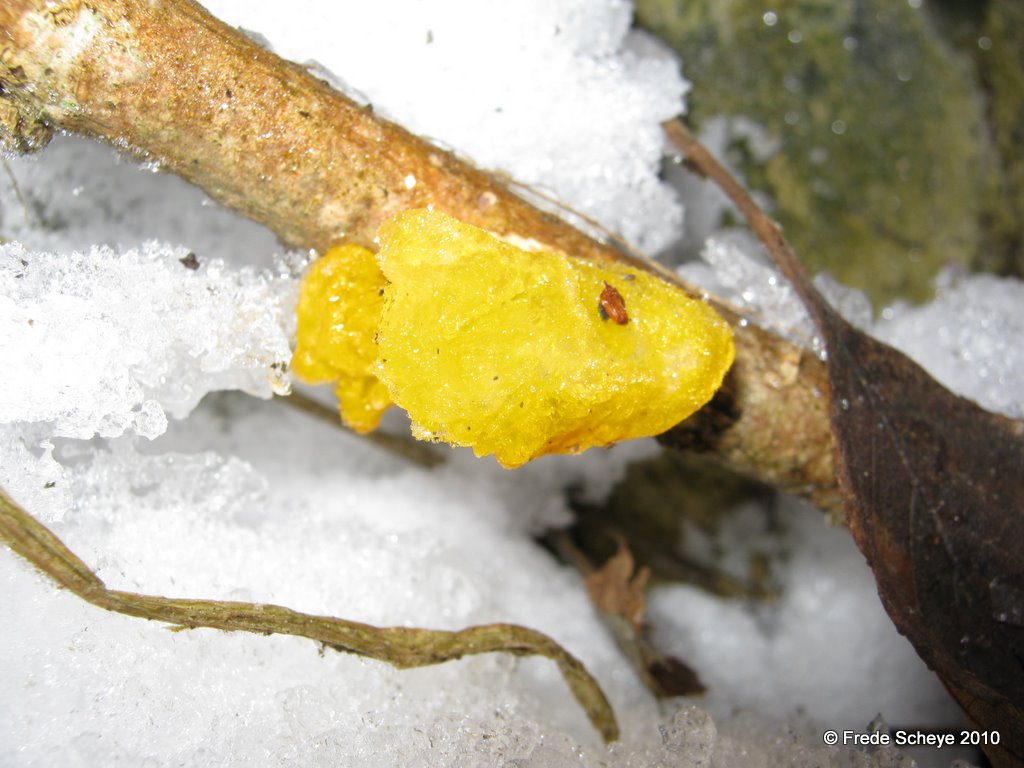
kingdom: Fungi
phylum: Basidiomycota
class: Tremellomycetes
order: Tremellales
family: Tremellaceae
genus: Tremella
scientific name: Tremella mesenterica
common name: gul bævresvamp
